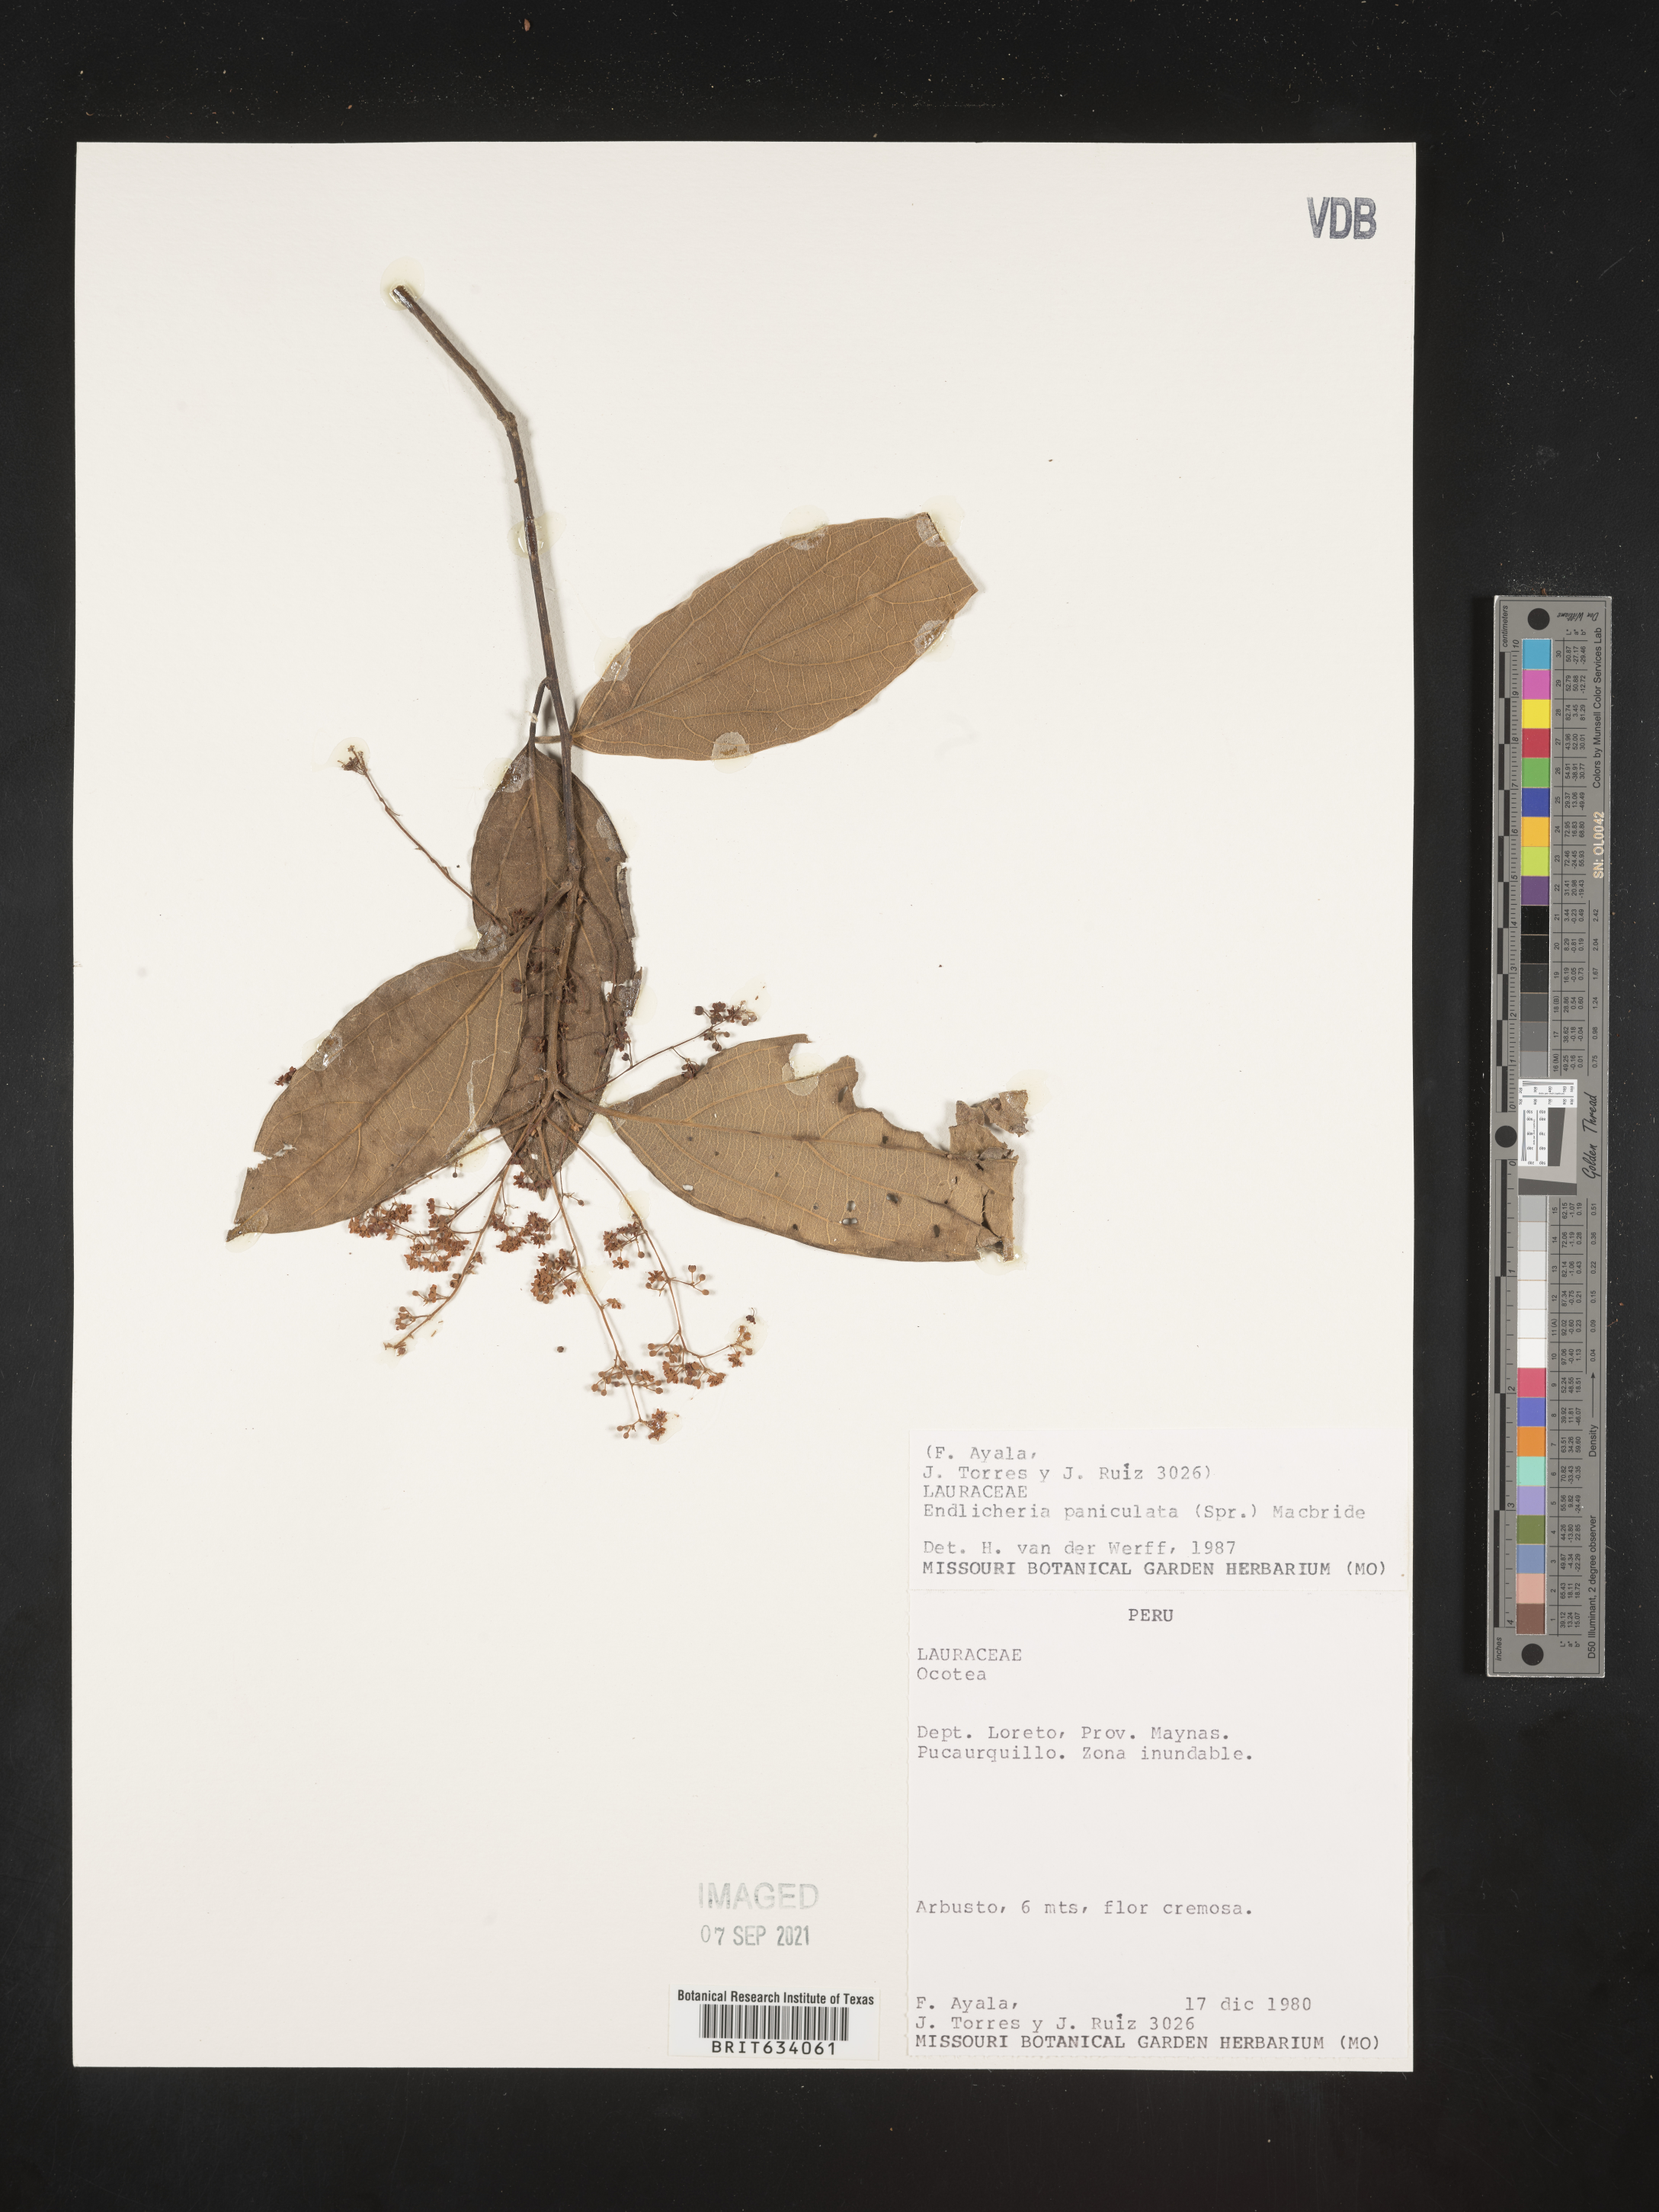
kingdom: Plantae
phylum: Tracheophyta
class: Magnoliopsida
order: Laurales
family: Lauraceae
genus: Endlicheria
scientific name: Endlicheria
